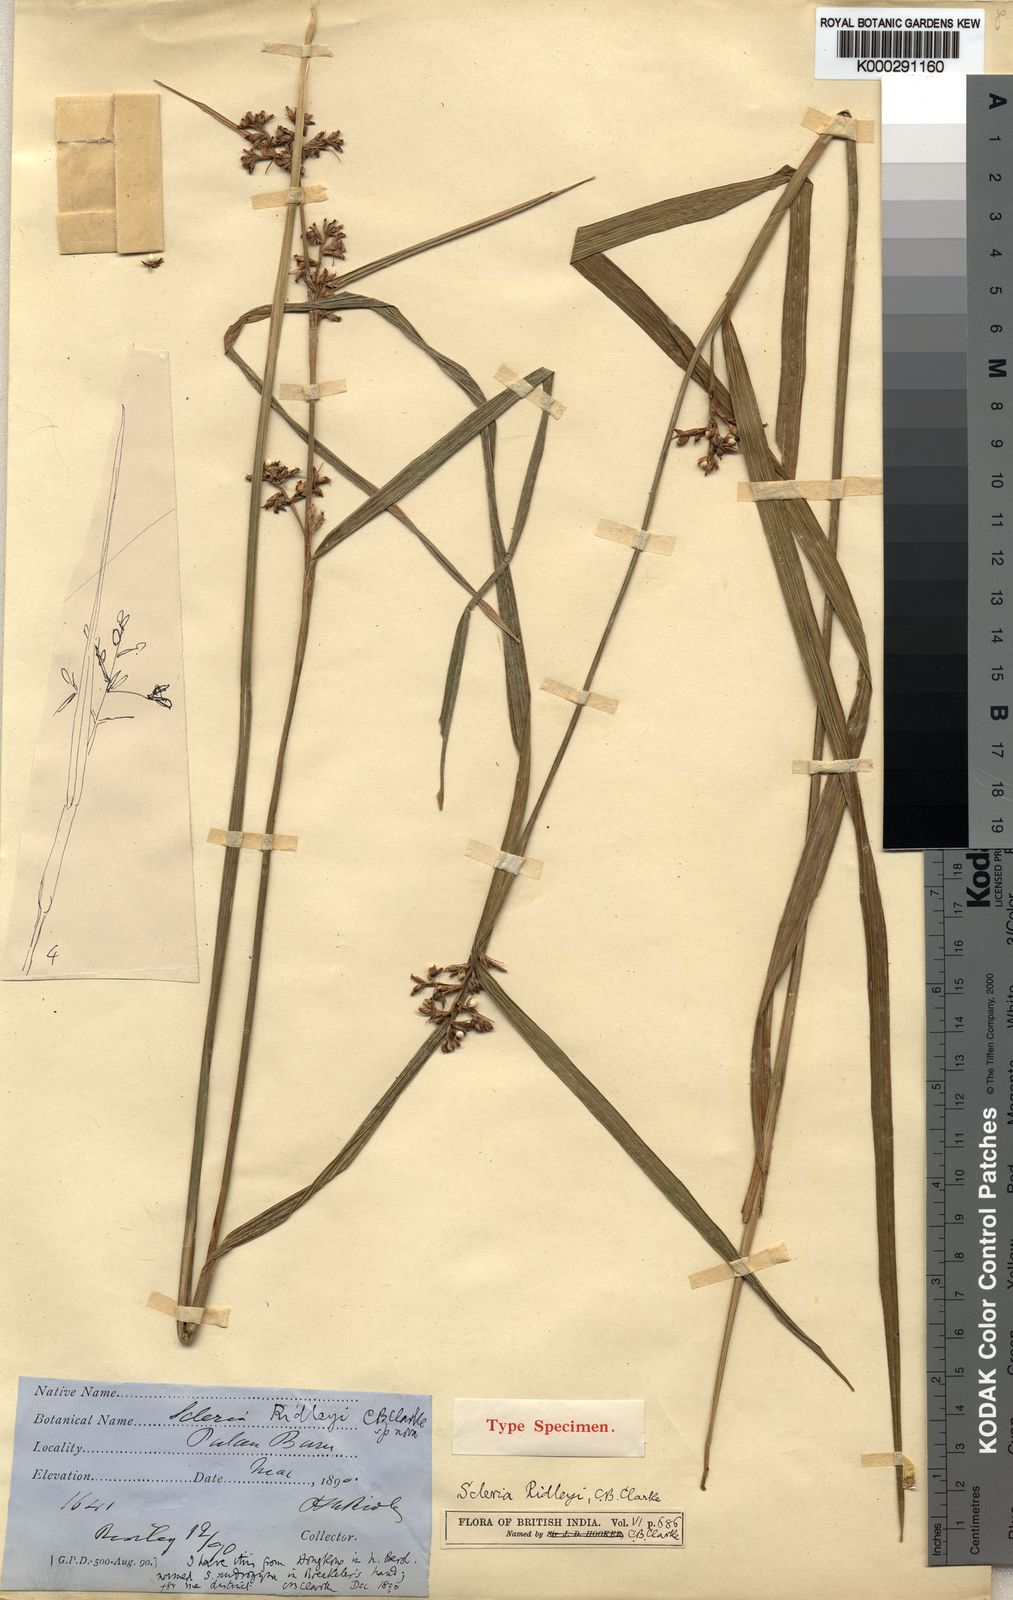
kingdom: Plantae
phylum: Tracheophyta
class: Liliopsida
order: Poales
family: Cyperaceae
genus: Scleria
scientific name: Scleria corymbosa
